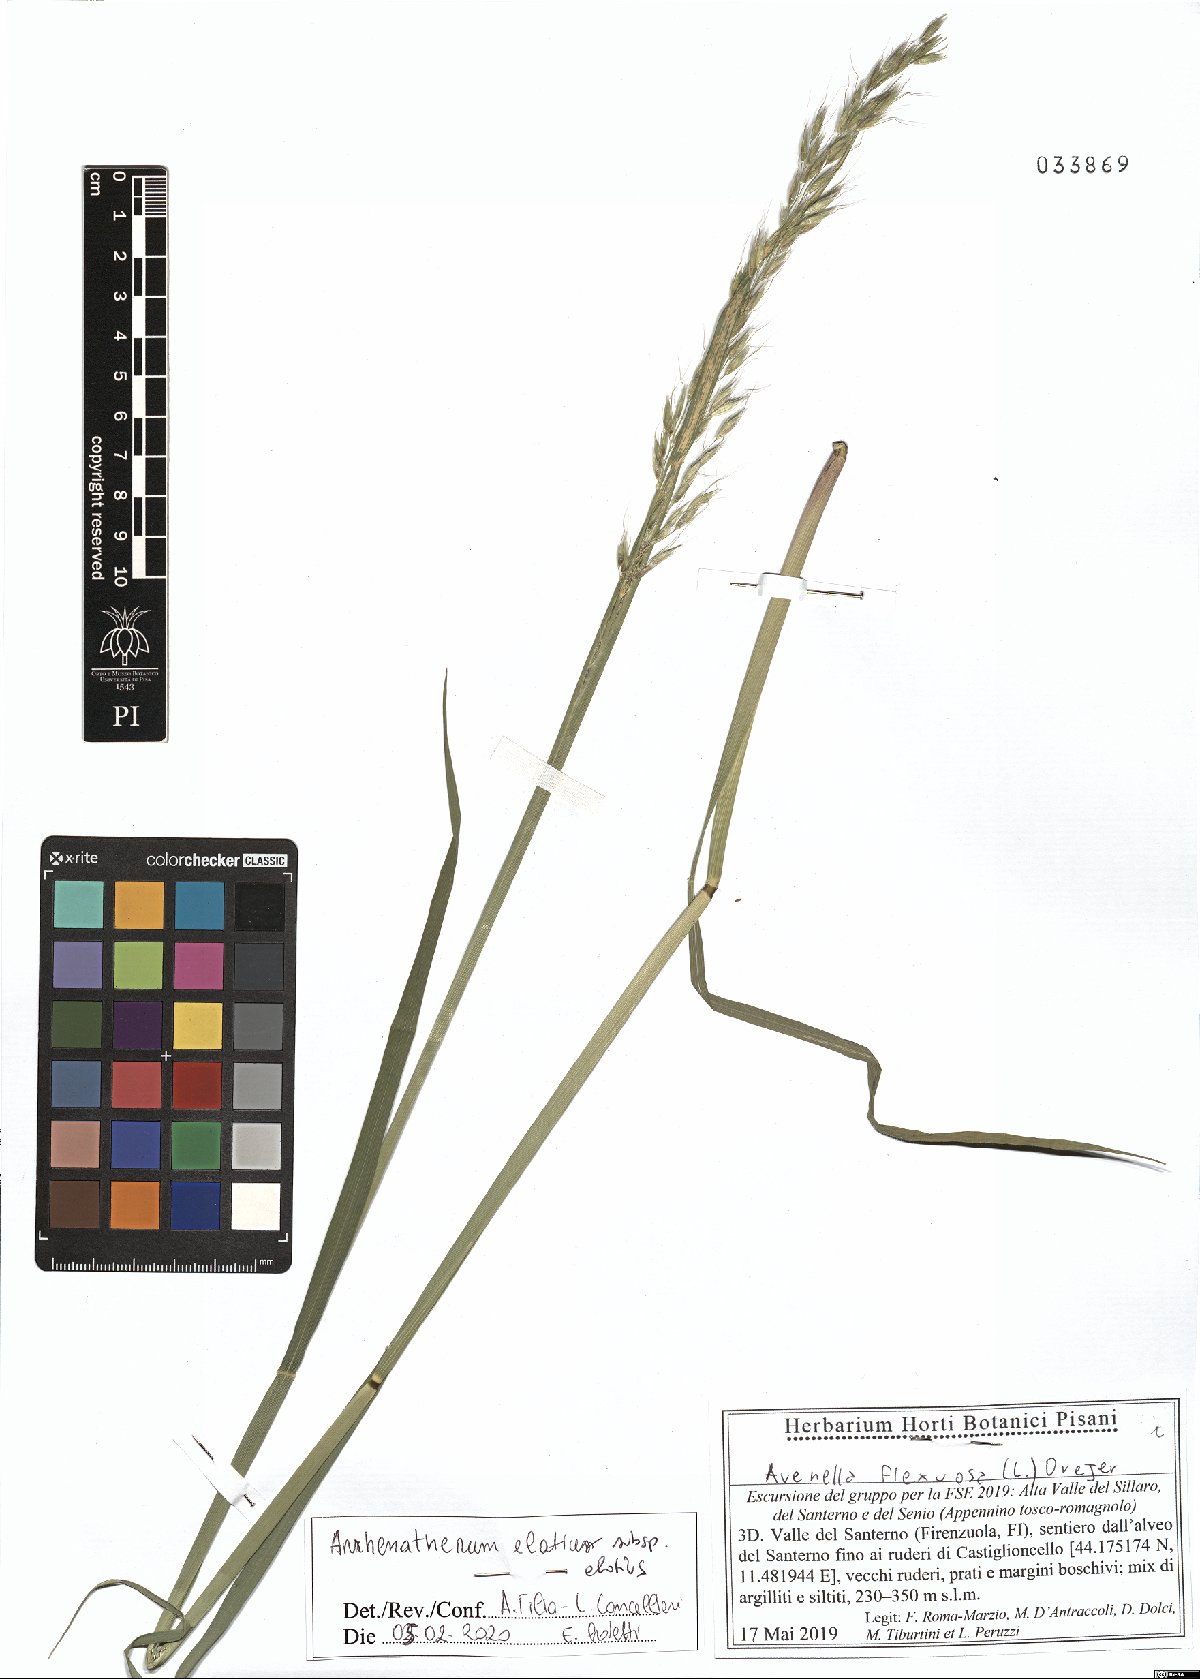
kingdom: Plantae
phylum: Tracheophyta
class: Liliopsida
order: Poales
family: Poaceae
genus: Arrhenatherum
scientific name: Arrhenatherum elatius
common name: Tall oatgrass
